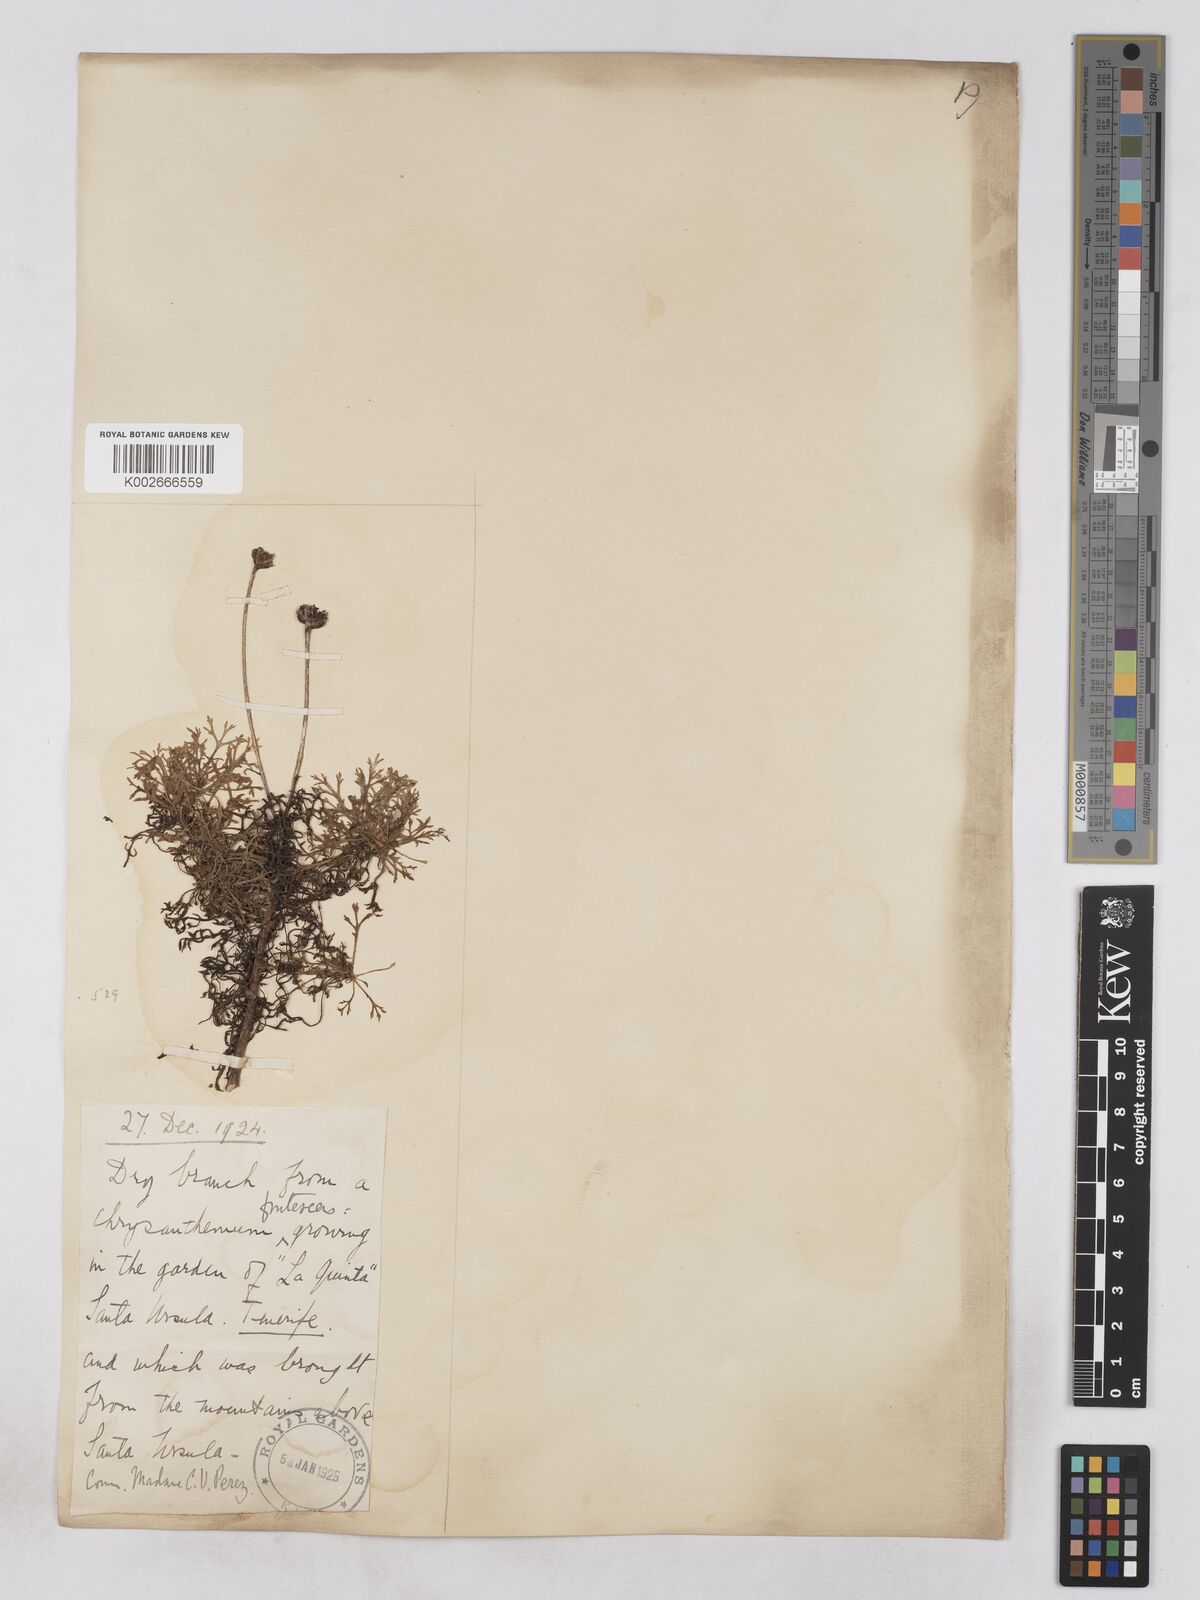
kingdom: Plantae
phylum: Tracheophyta
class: Magnoliopsida
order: Asterales
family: Asteraceae
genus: Argyranthemum
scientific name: Argyranthemum frutescens
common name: Paris daisy
